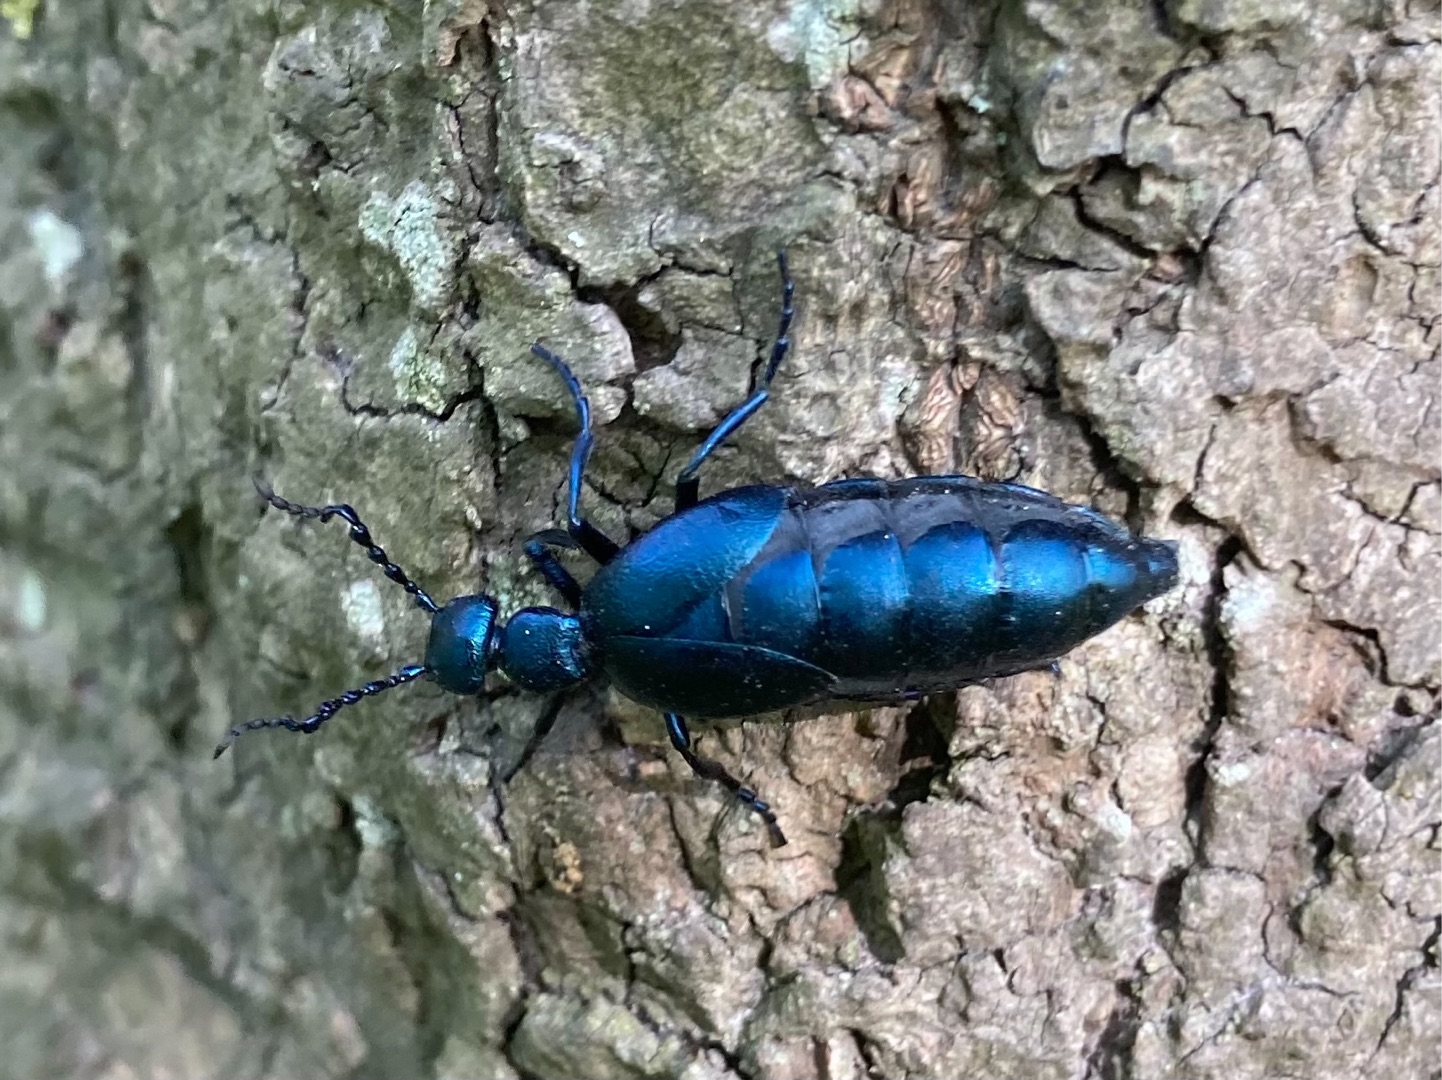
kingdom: Animalia
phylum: Arthropoda
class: Insecta
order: Coleoptera
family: Meloidae
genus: Meloe
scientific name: Meloe violaceus
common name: Blå oliebille
